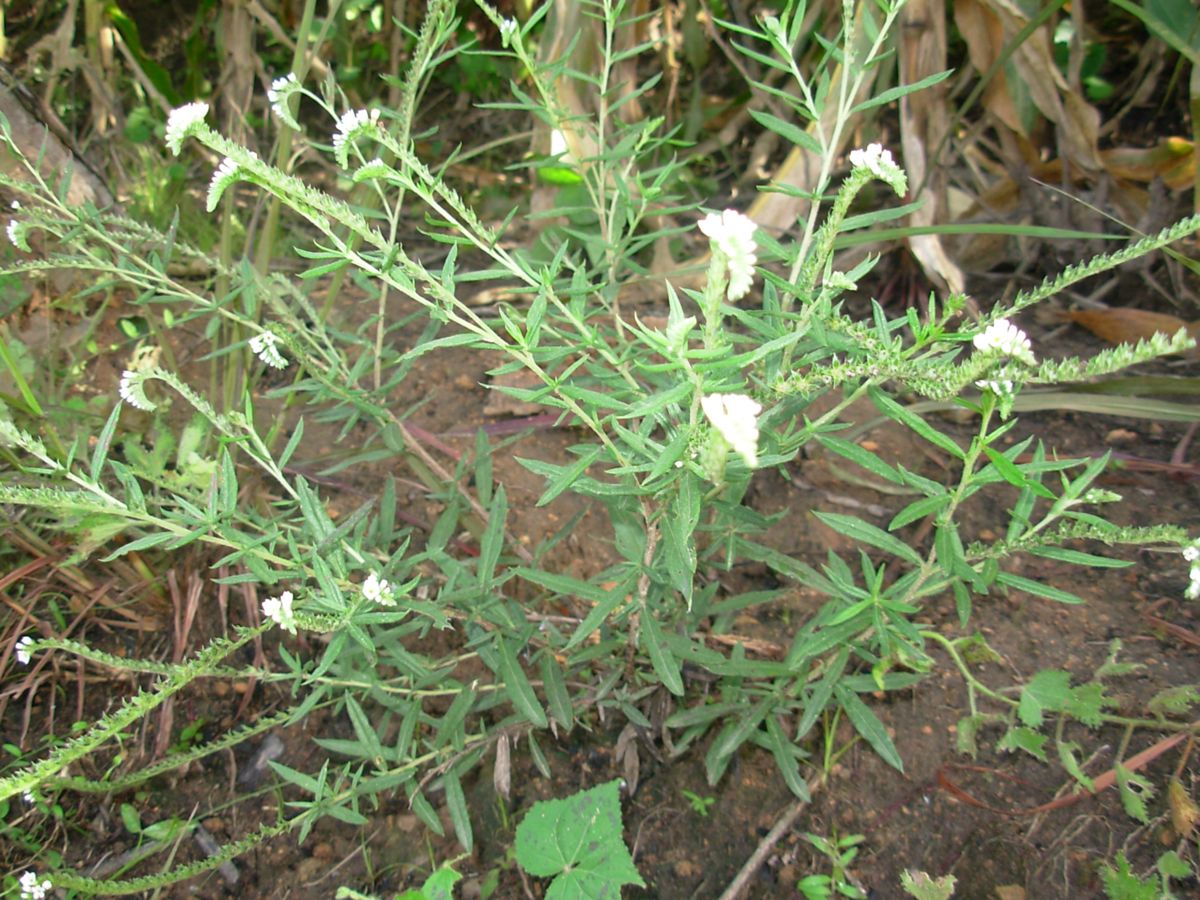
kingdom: Plantae
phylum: Tracheophyta
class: Magnoliopsida
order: Boraginales
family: Heliotropiaceae
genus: Euploca
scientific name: Euploca humilis
